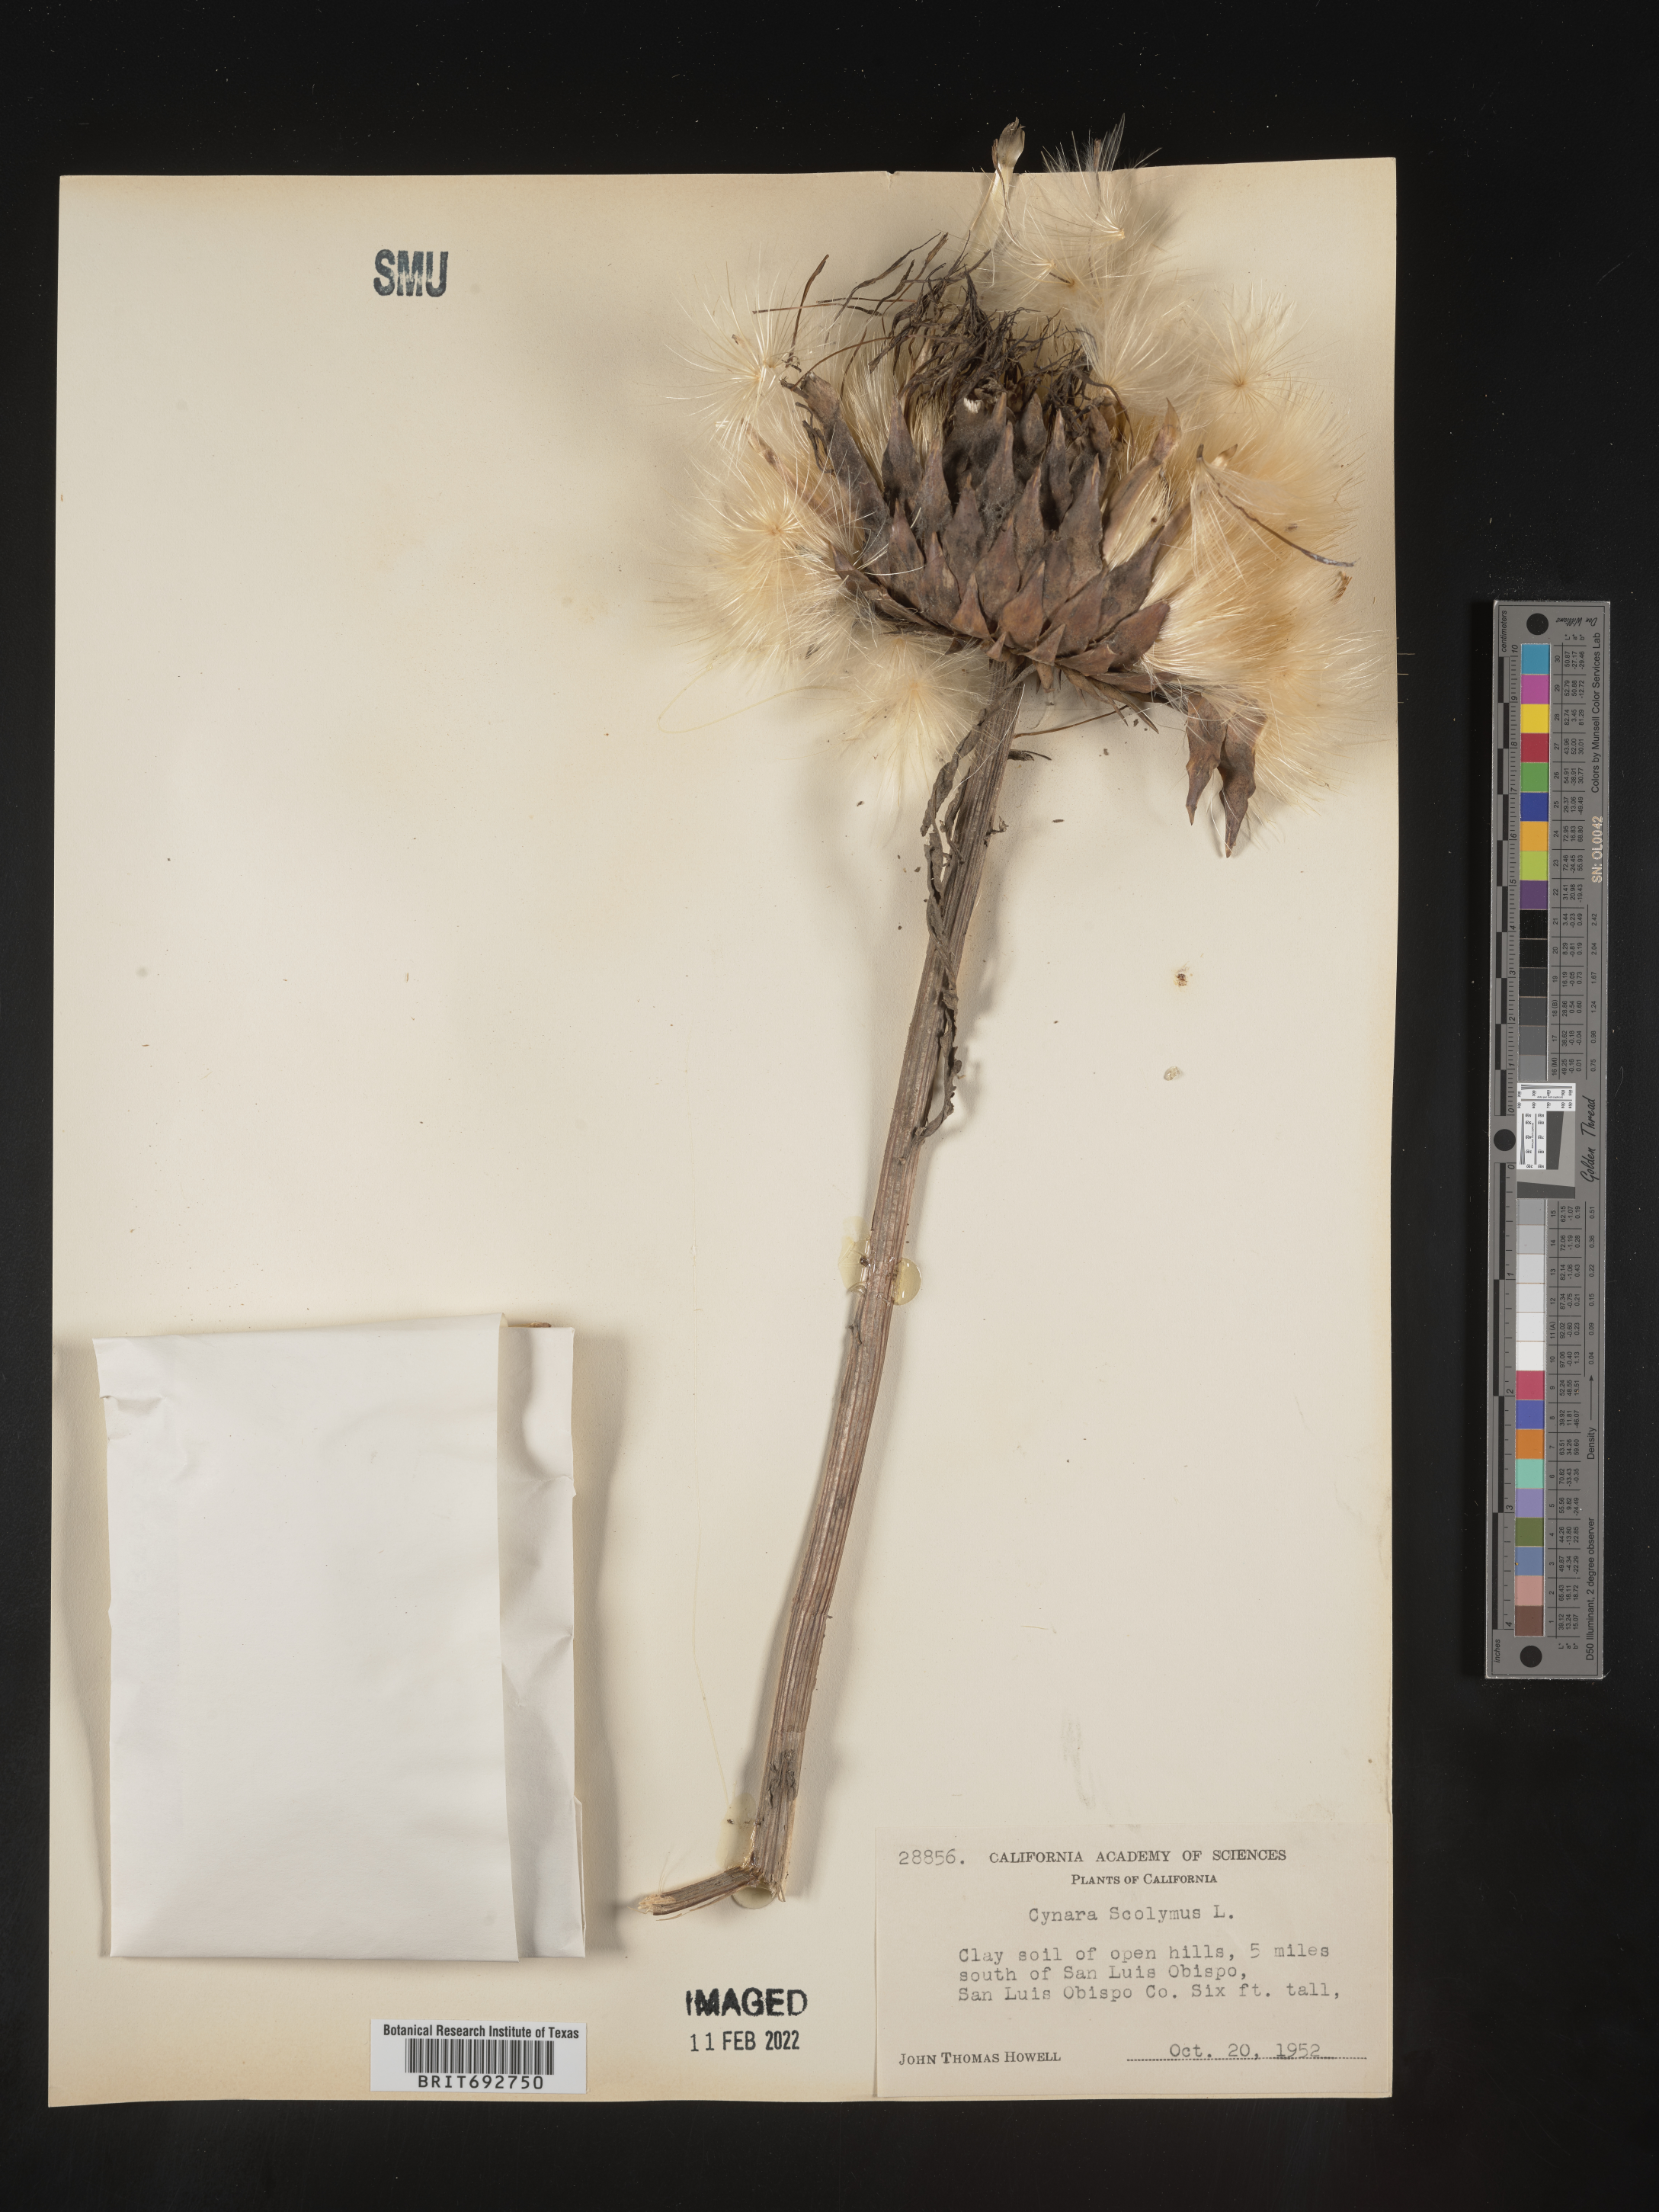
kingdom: Plantae
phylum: Tracheophyta
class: Magnoliopsida
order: Asterales
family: Asteraceae
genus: Cynara
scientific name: Cynara
